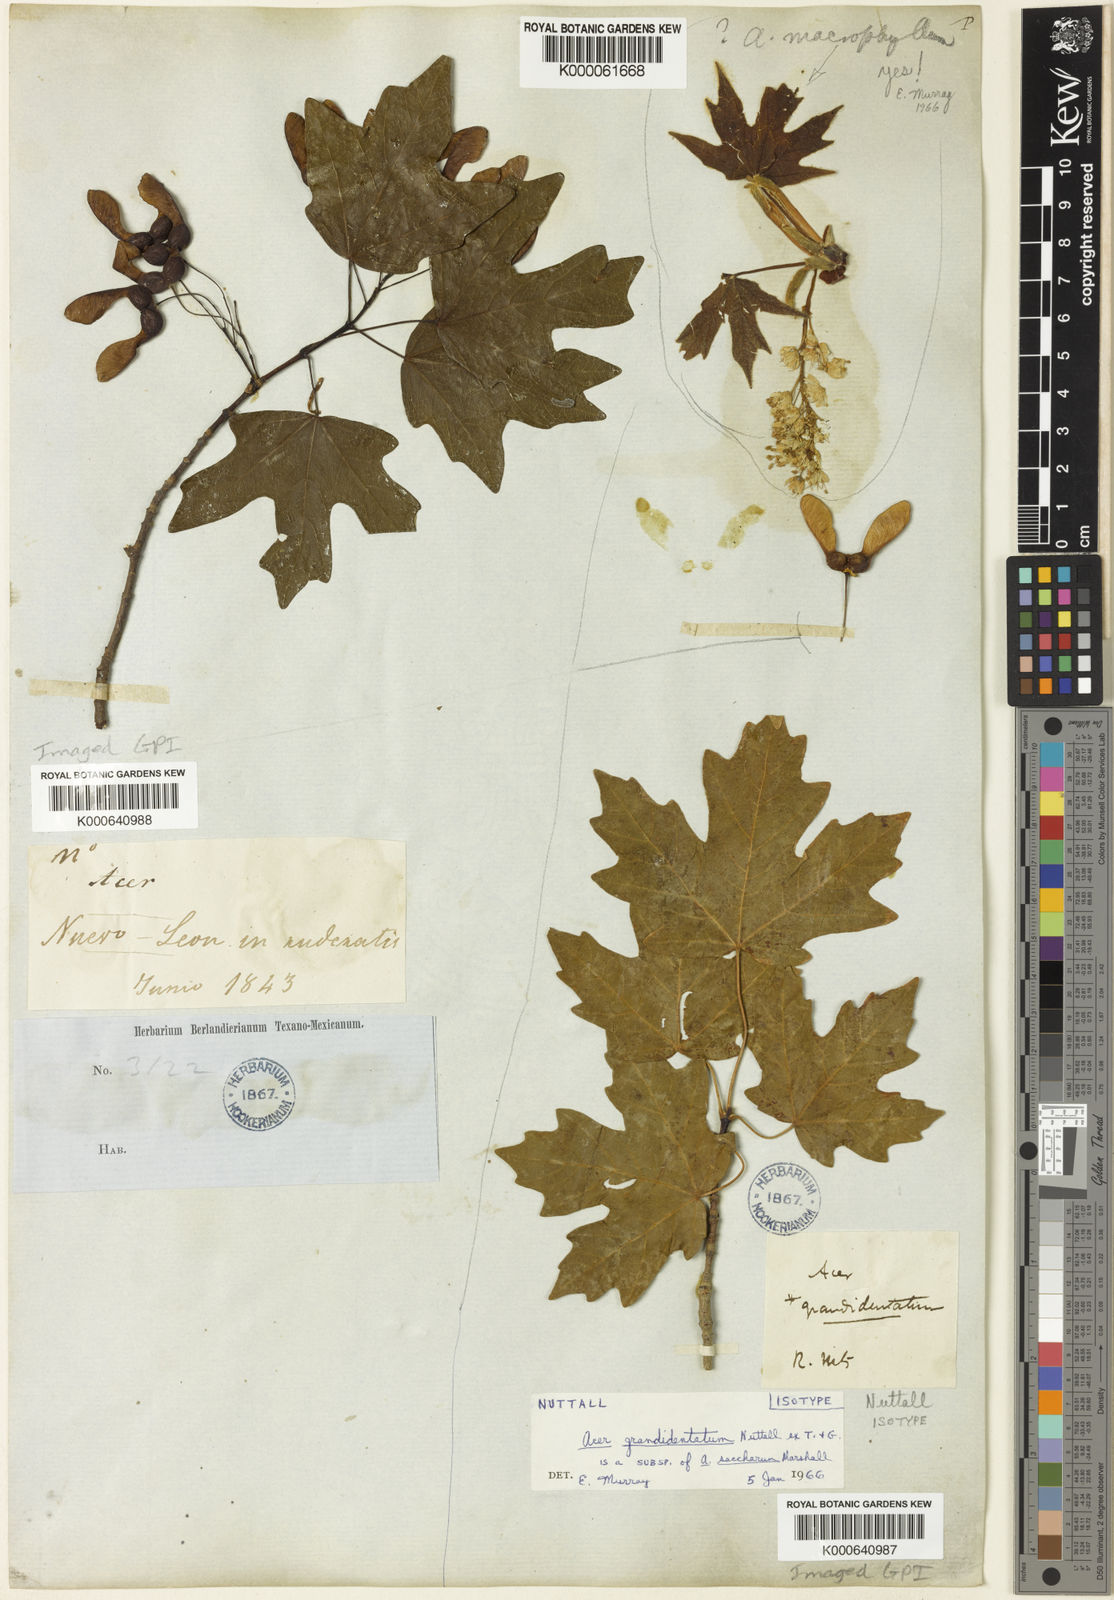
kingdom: Plantae
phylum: Tracheophyta
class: Magnoliopsida
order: Sapindales
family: Sapindaceae
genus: Acer
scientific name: Acer saccharum
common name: Sugar maple
